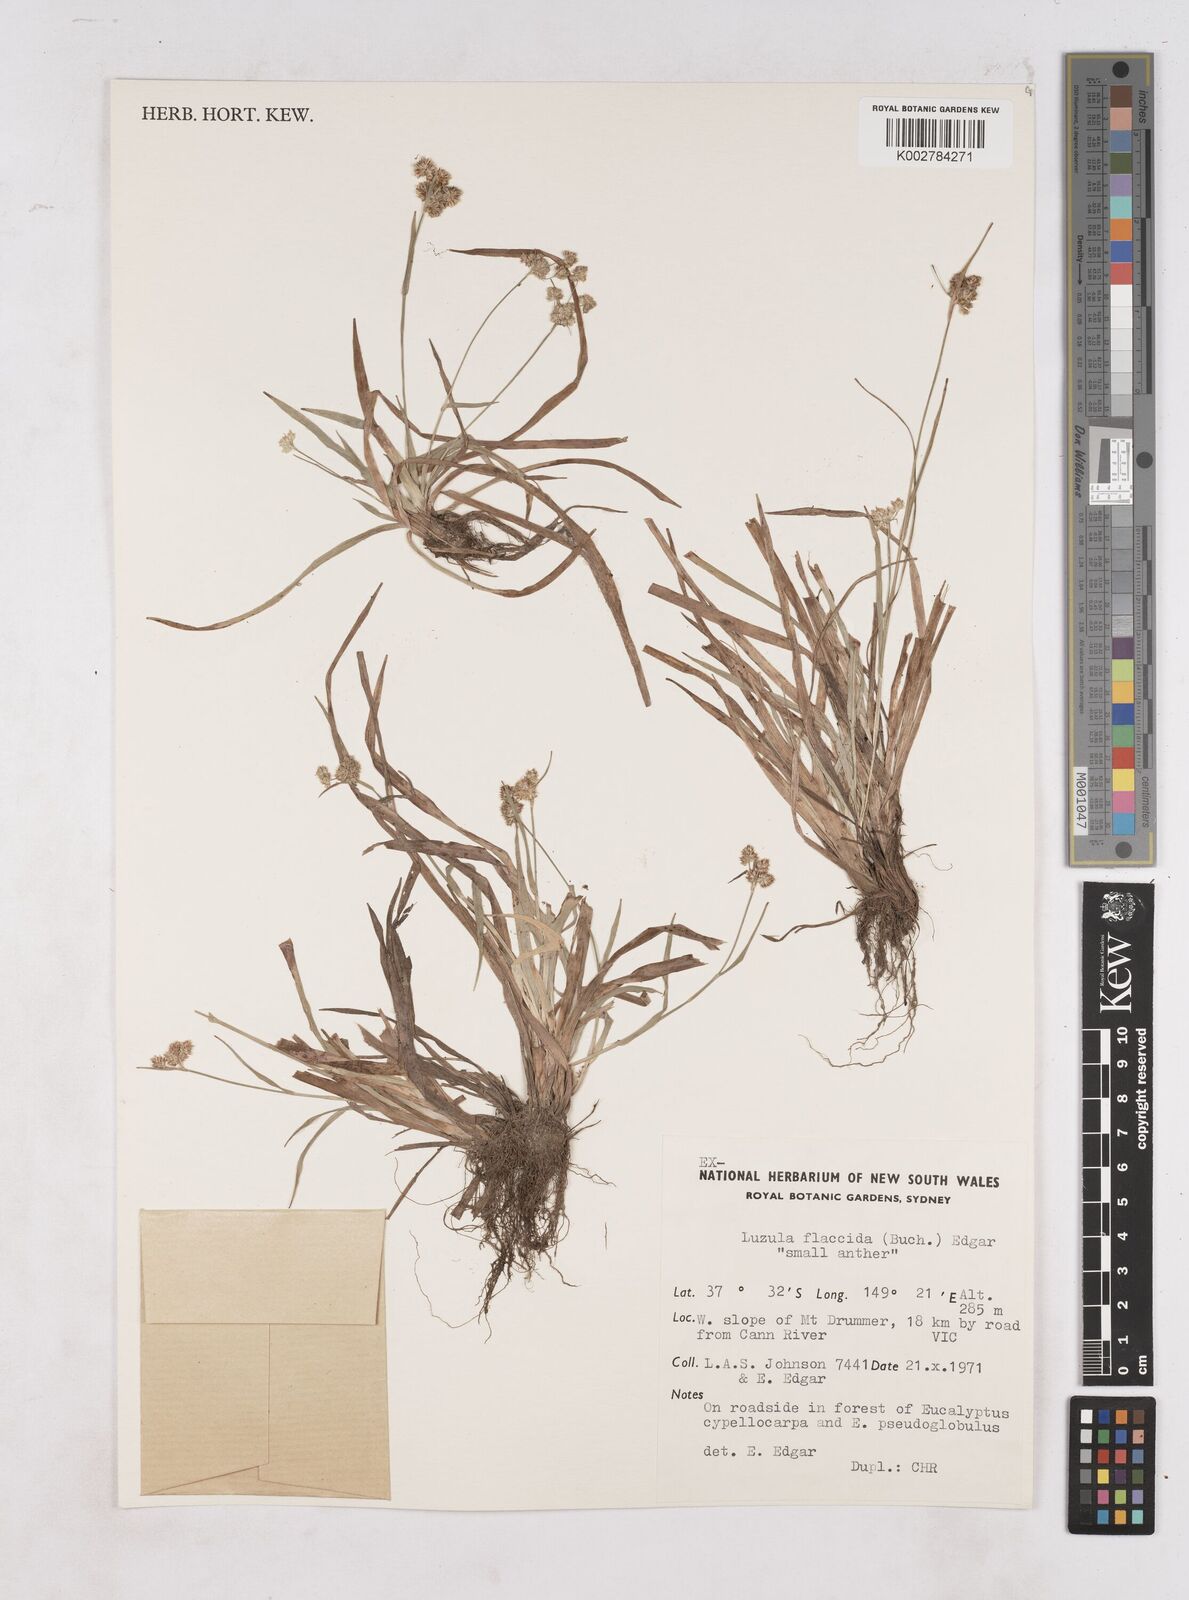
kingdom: Plantae
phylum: Tracheophyta
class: Liliopsida
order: Poales
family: Juncaceae
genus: Luzula
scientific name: Luzula flaccida
